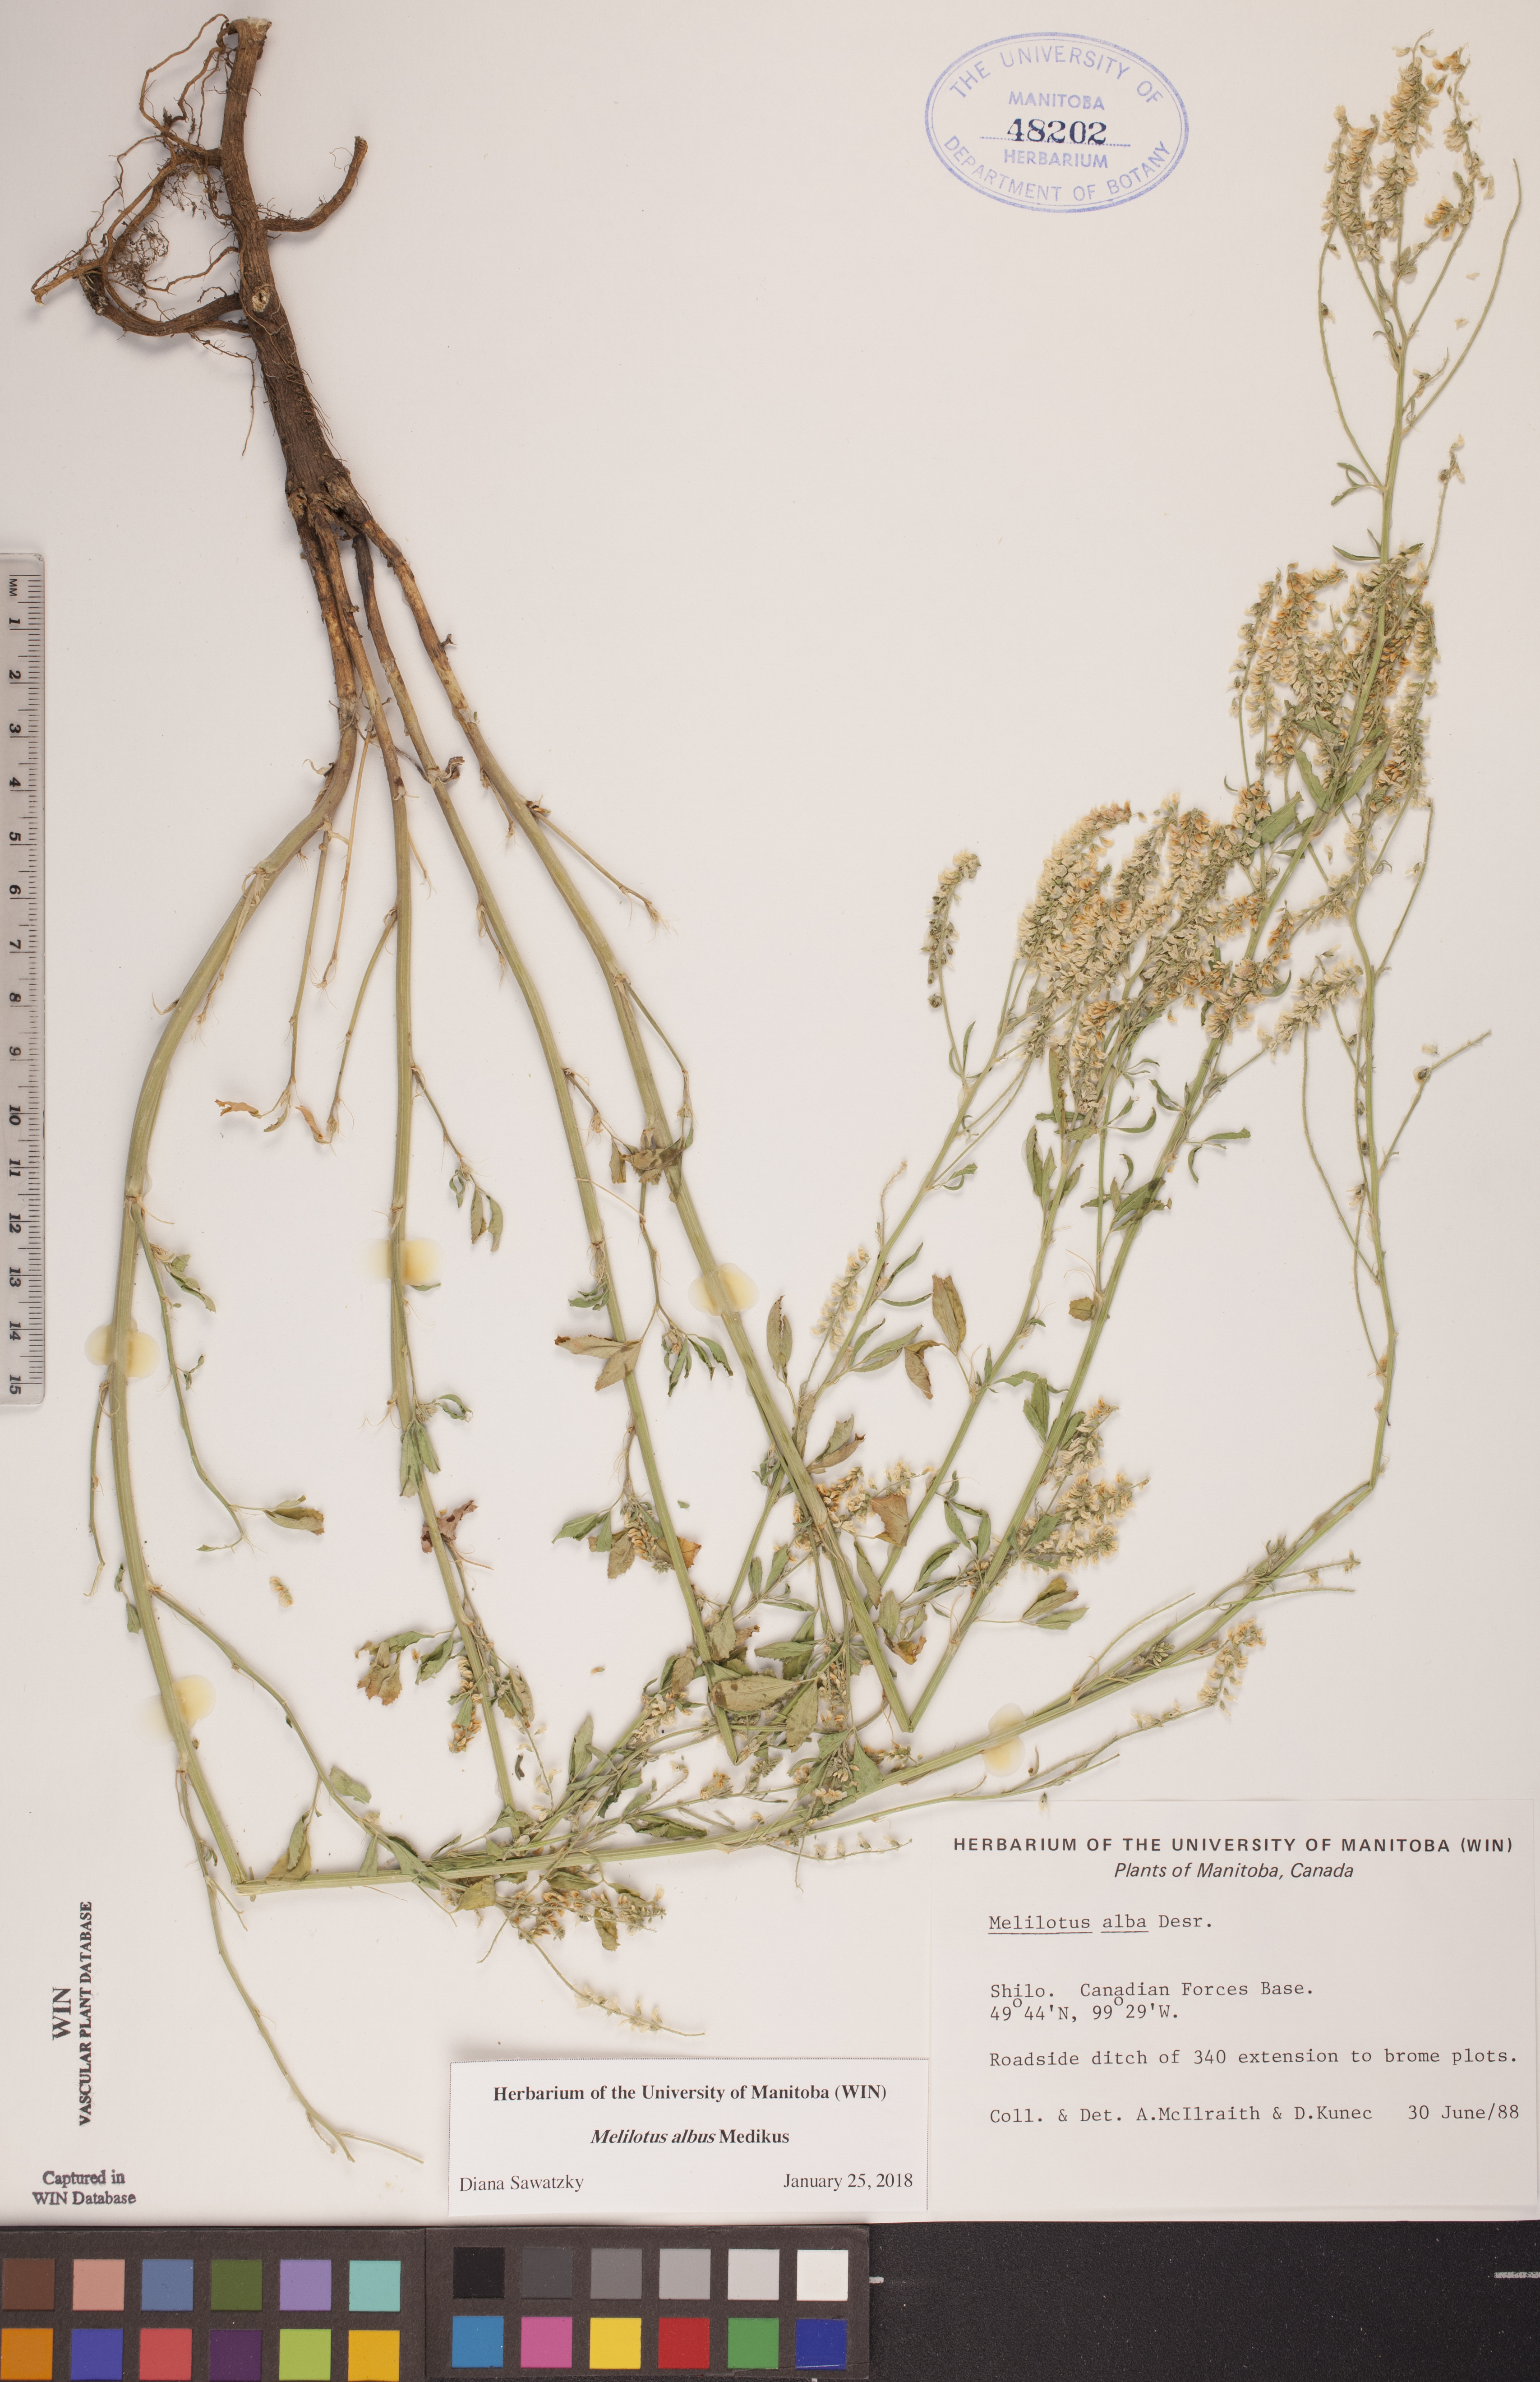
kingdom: Plantae
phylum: Tracheophyta
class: Magnoliopsida
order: Fabales
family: Fabaceae
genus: Melilotus
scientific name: Melilotus albus
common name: White melilot
